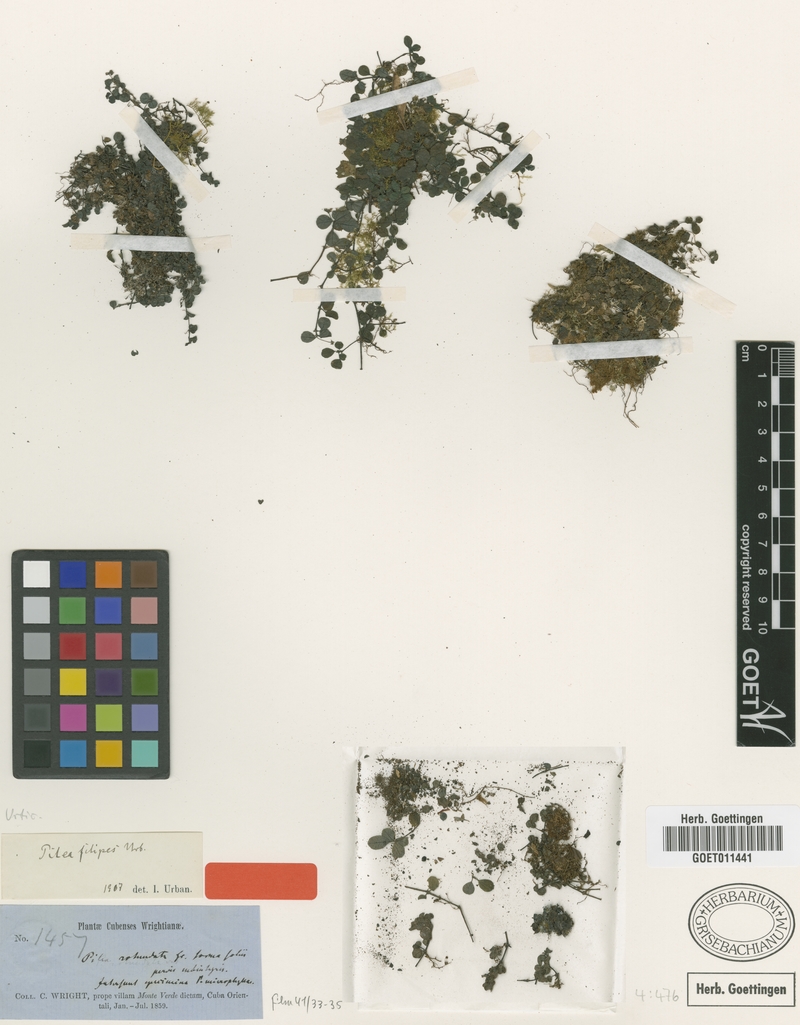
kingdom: Plantae
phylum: Tracheophyta
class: Magnoliopsida
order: Rosales
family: Urticaceae
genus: Pilea
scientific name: Pilea rotundata
